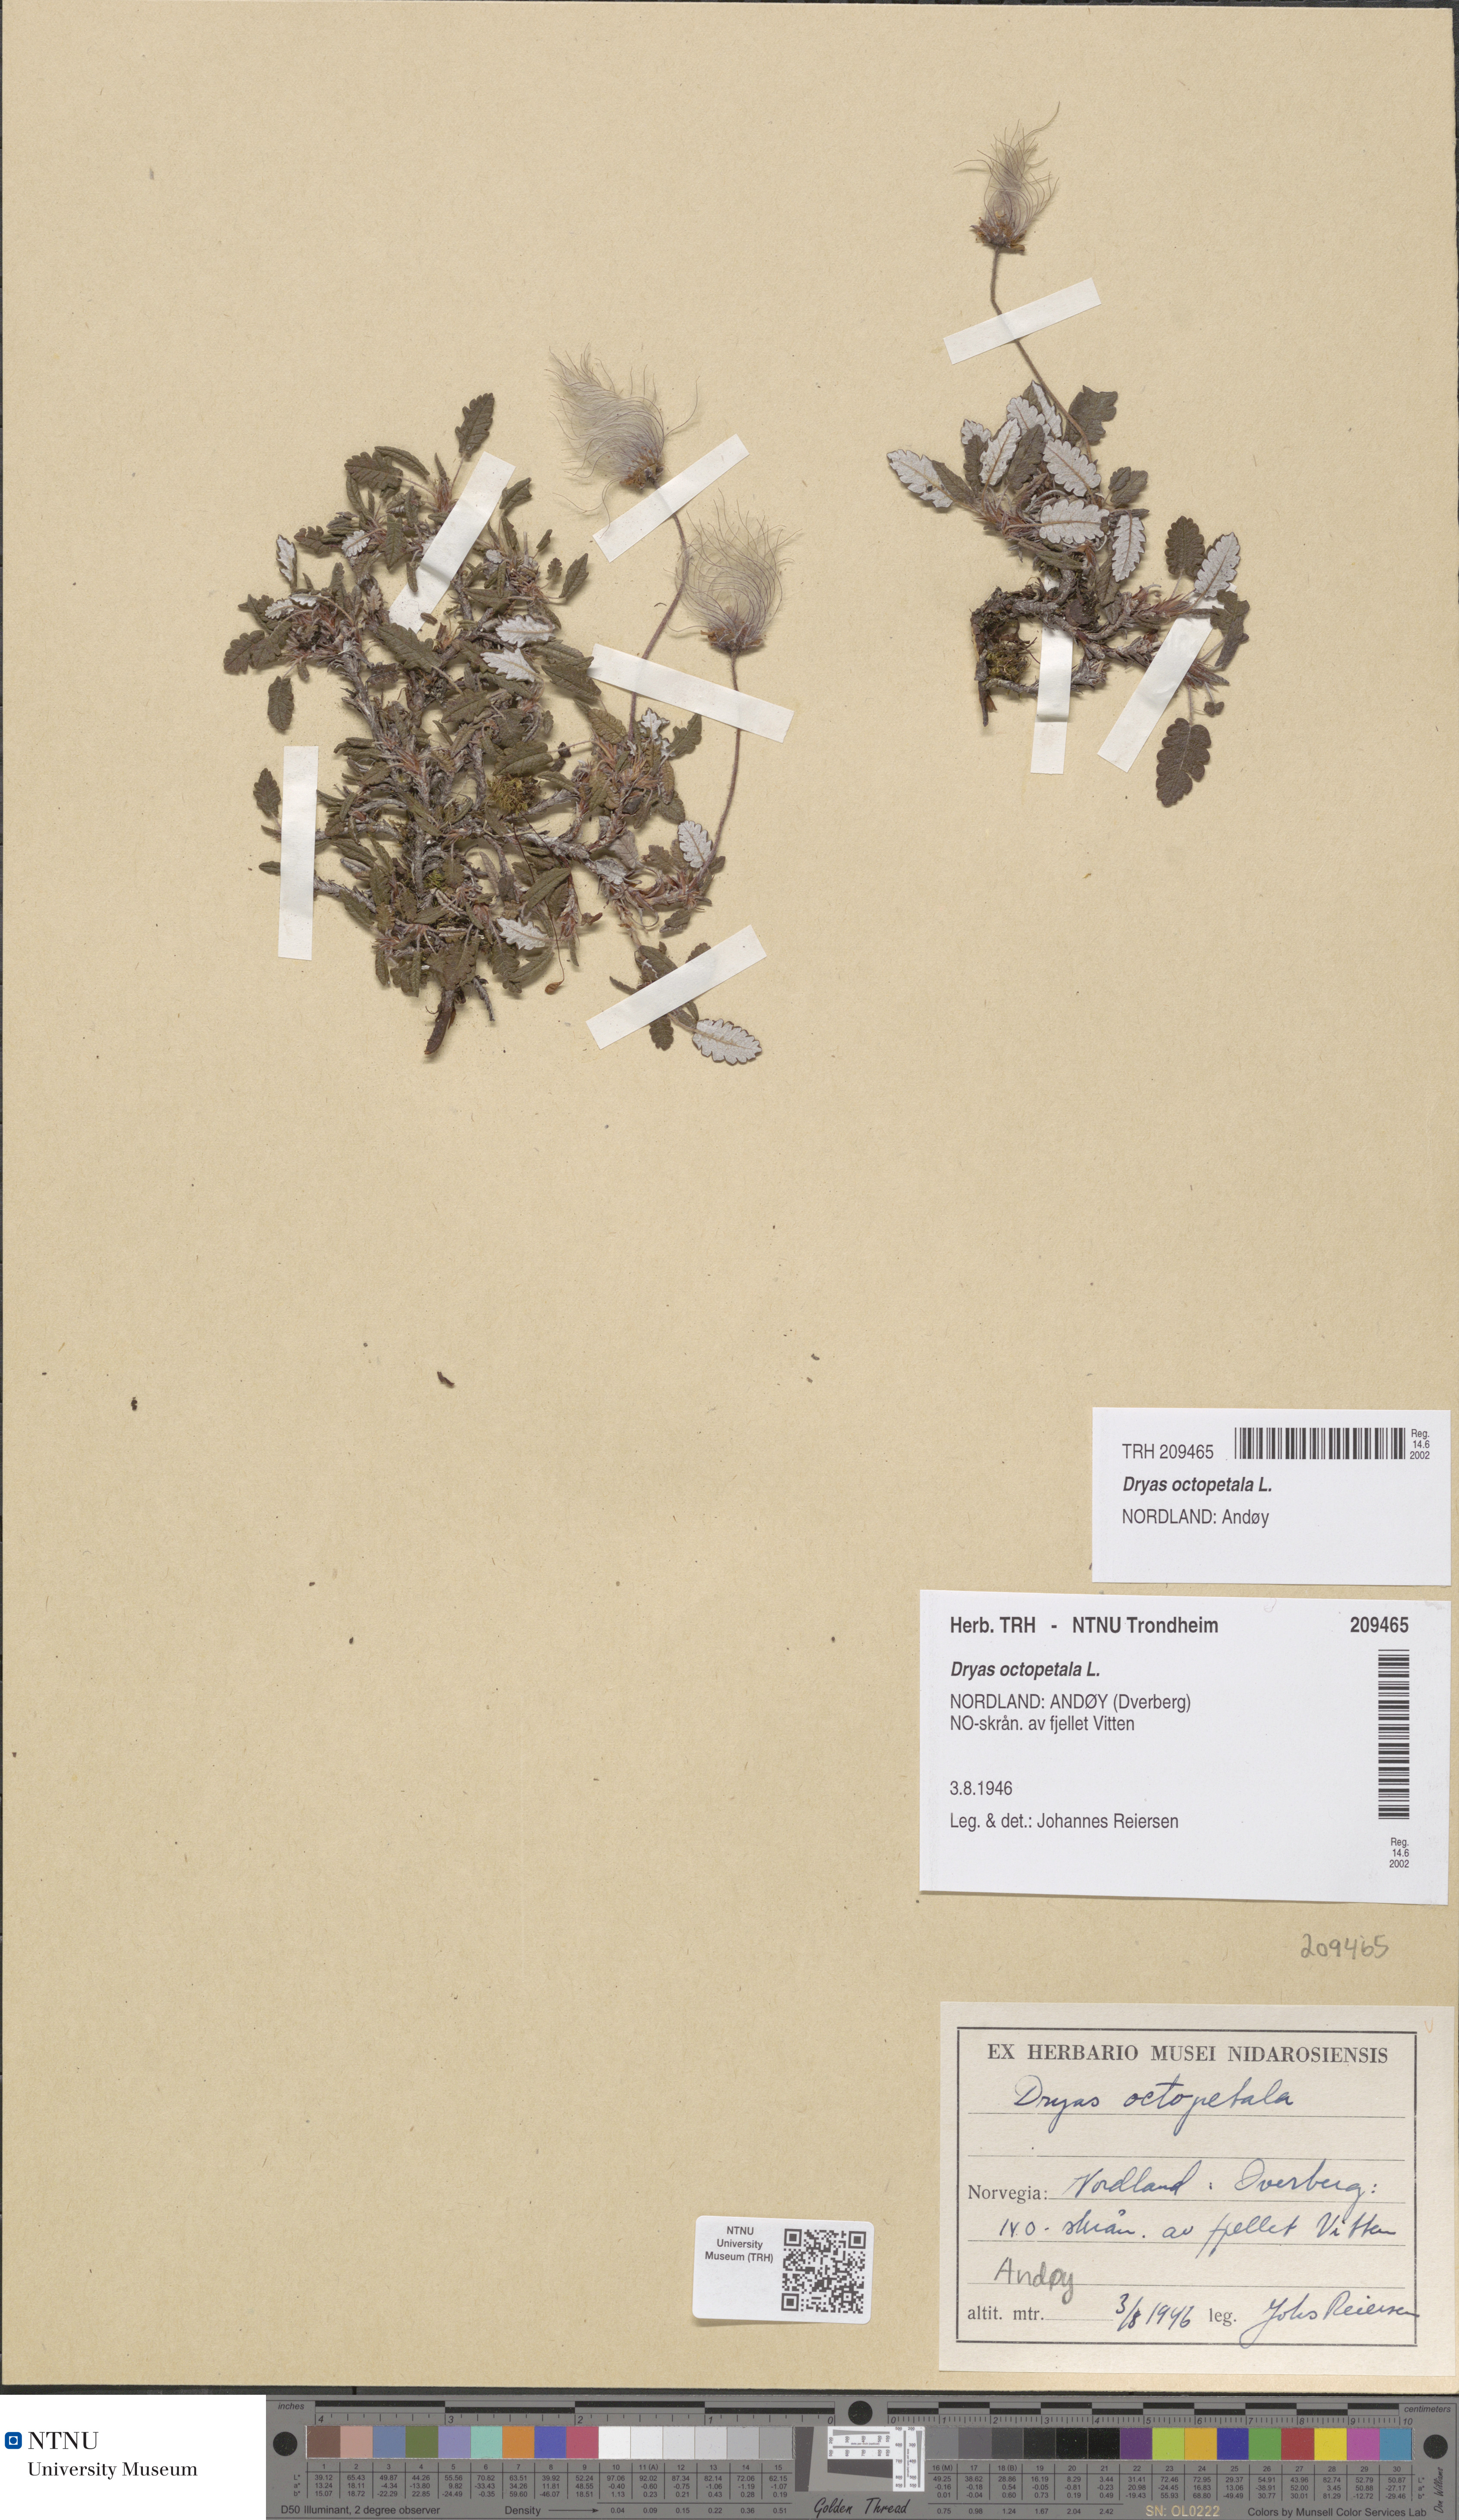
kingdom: Plantae
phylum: Tracheophyta
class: Magnoliopsida
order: Rosales
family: Rosaceae
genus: Dryas
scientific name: Dryas octopetala
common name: Eight-petal mountain-avens
